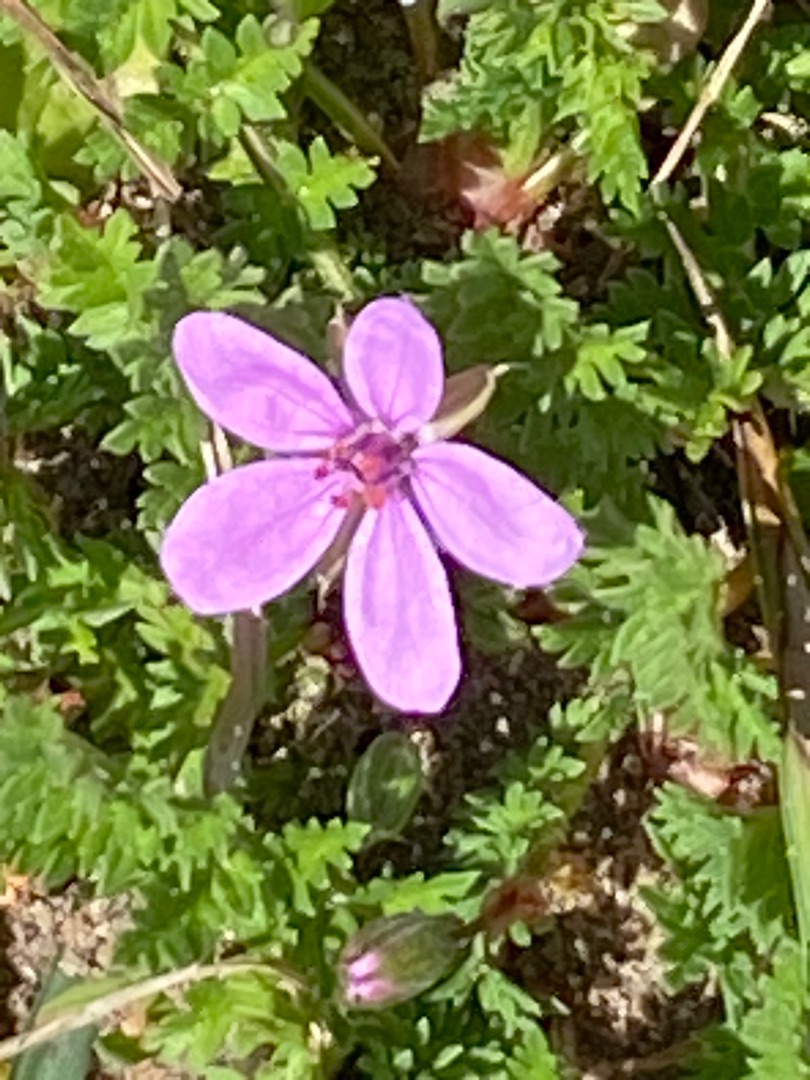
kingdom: Plantae
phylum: Tracheophyta
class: Magnoliopsida
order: Geraniales
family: Geraniaceae
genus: Erodium
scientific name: Erodium cicutarium
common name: Hejrenæb
